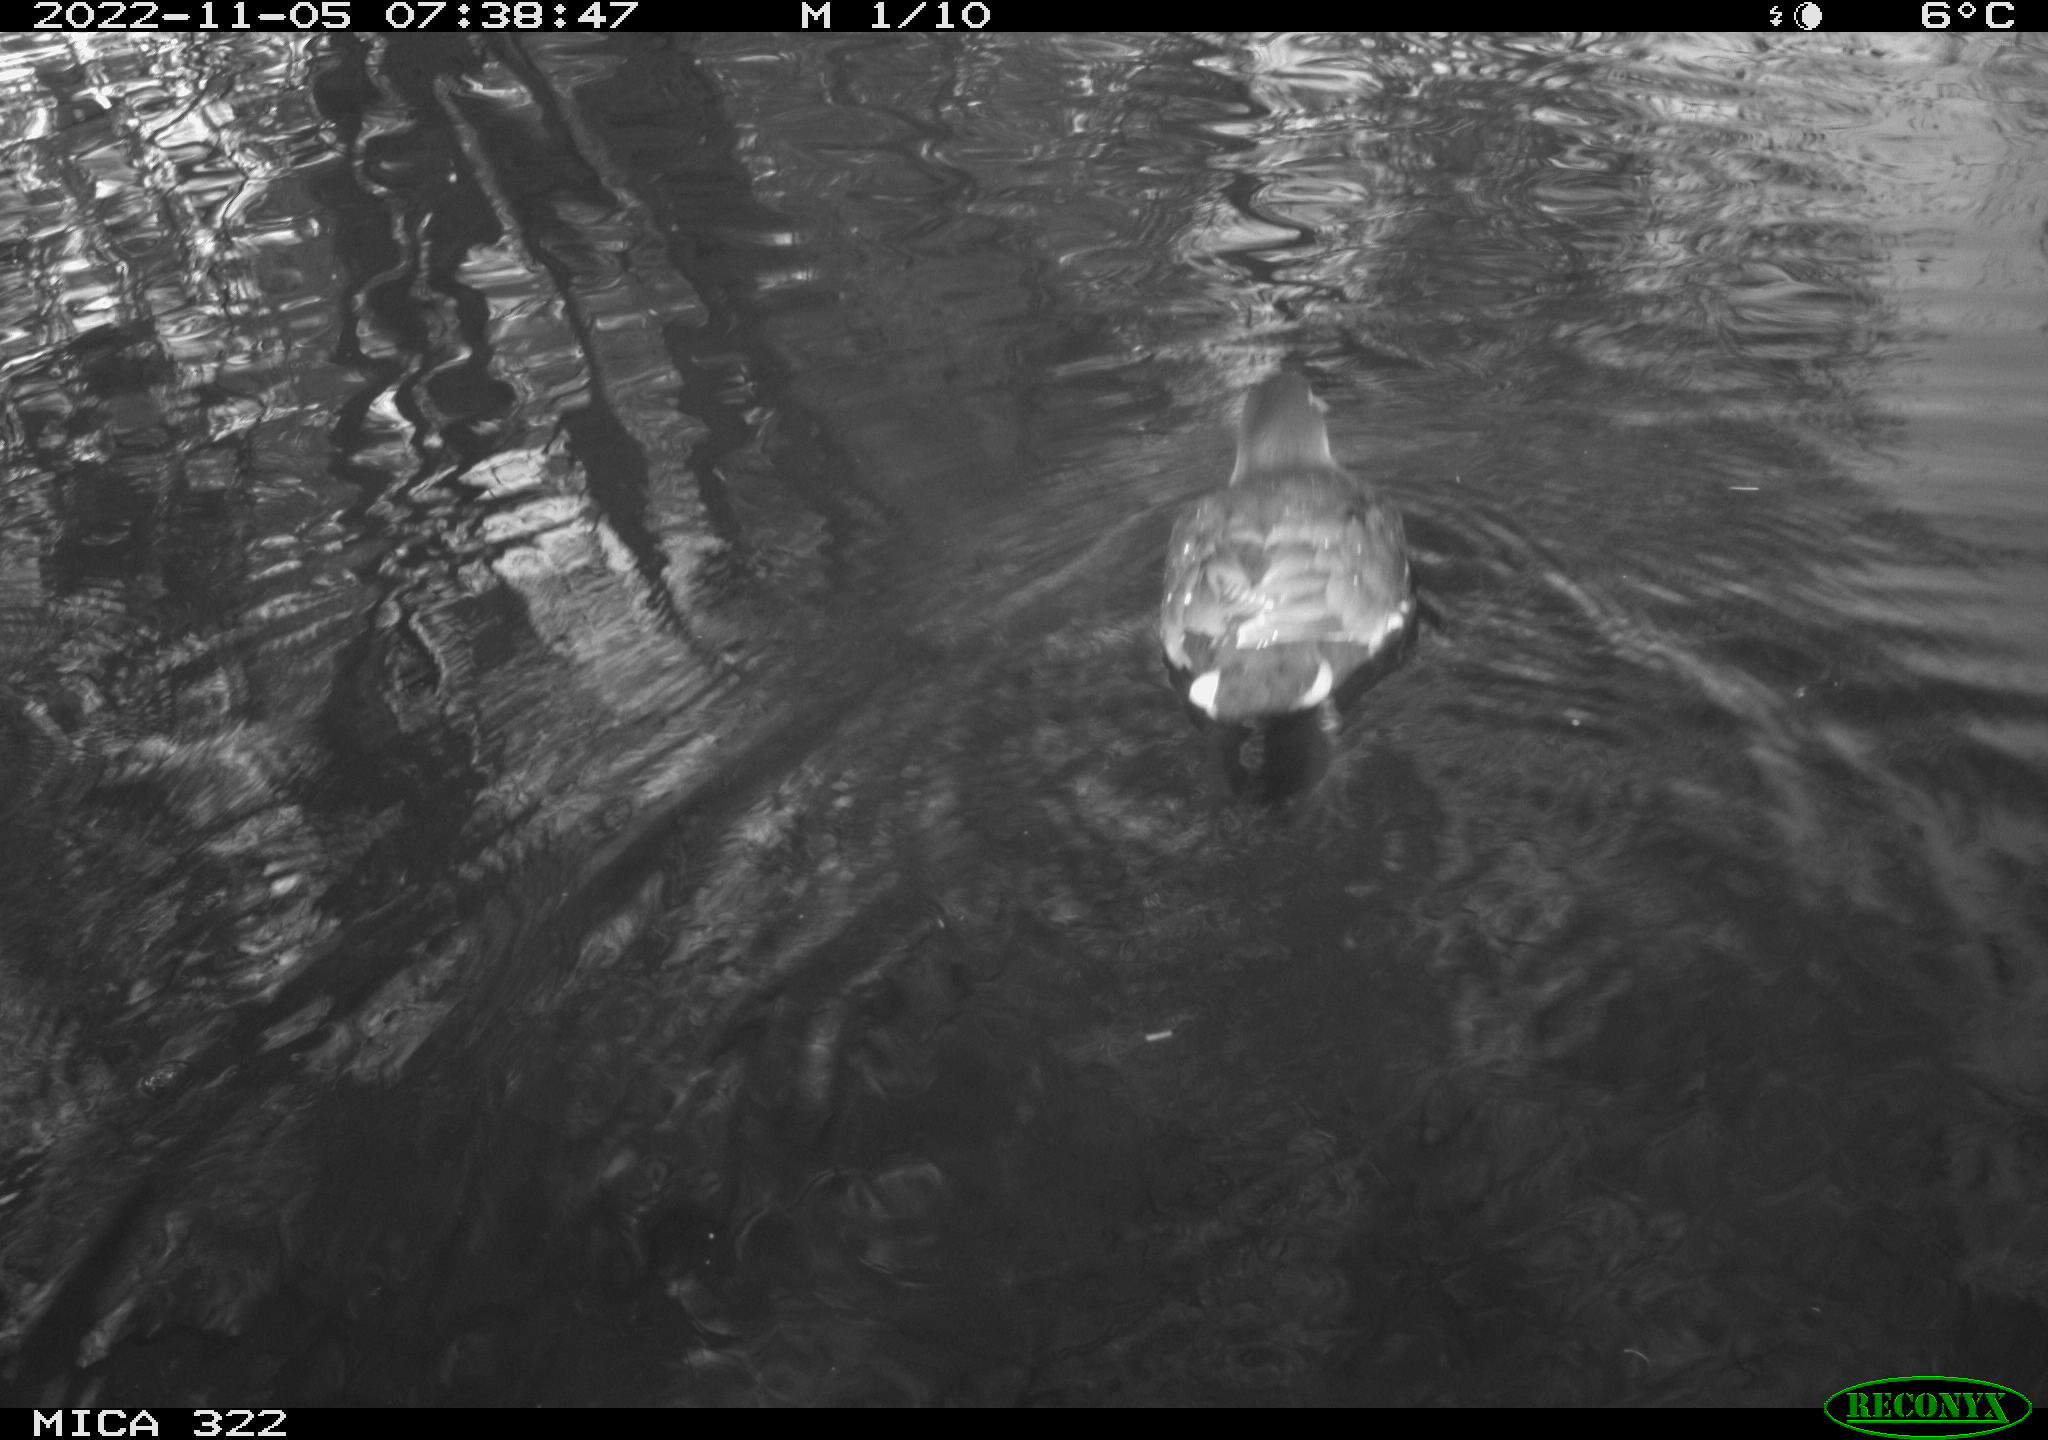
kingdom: Animalia
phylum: Chordata
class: Aves
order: Gruiformes
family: Rallidae
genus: Gallinula
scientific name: Gallinula chloropus
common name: Common moorhen
